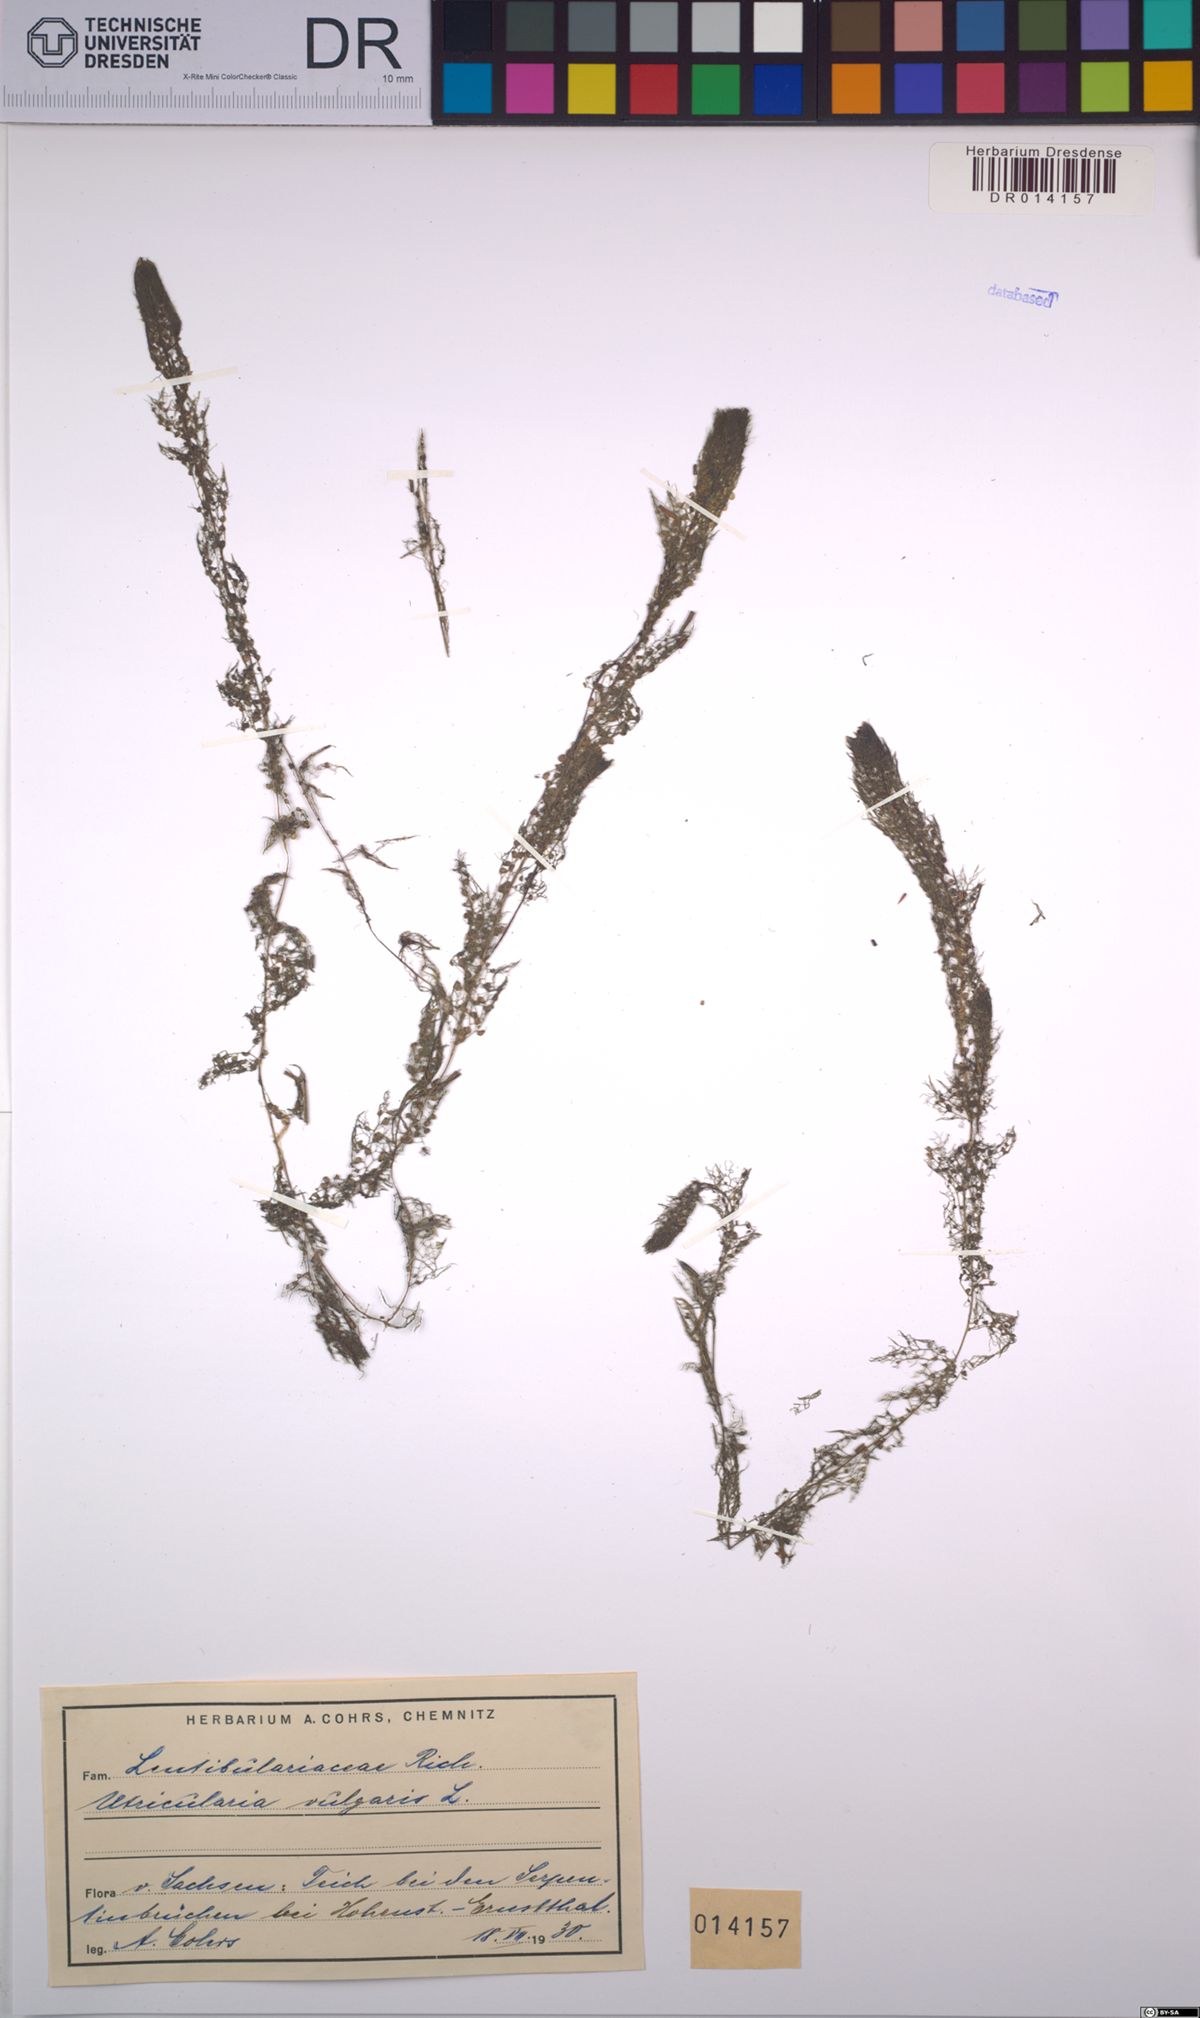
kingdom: Plantae
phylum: Tracheophyta
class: Magnoliopsida
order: Lamiales
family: Lentibulariaceae
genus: Utricularia
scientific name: Utricularia vulgaris
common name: Greater bladderwort
